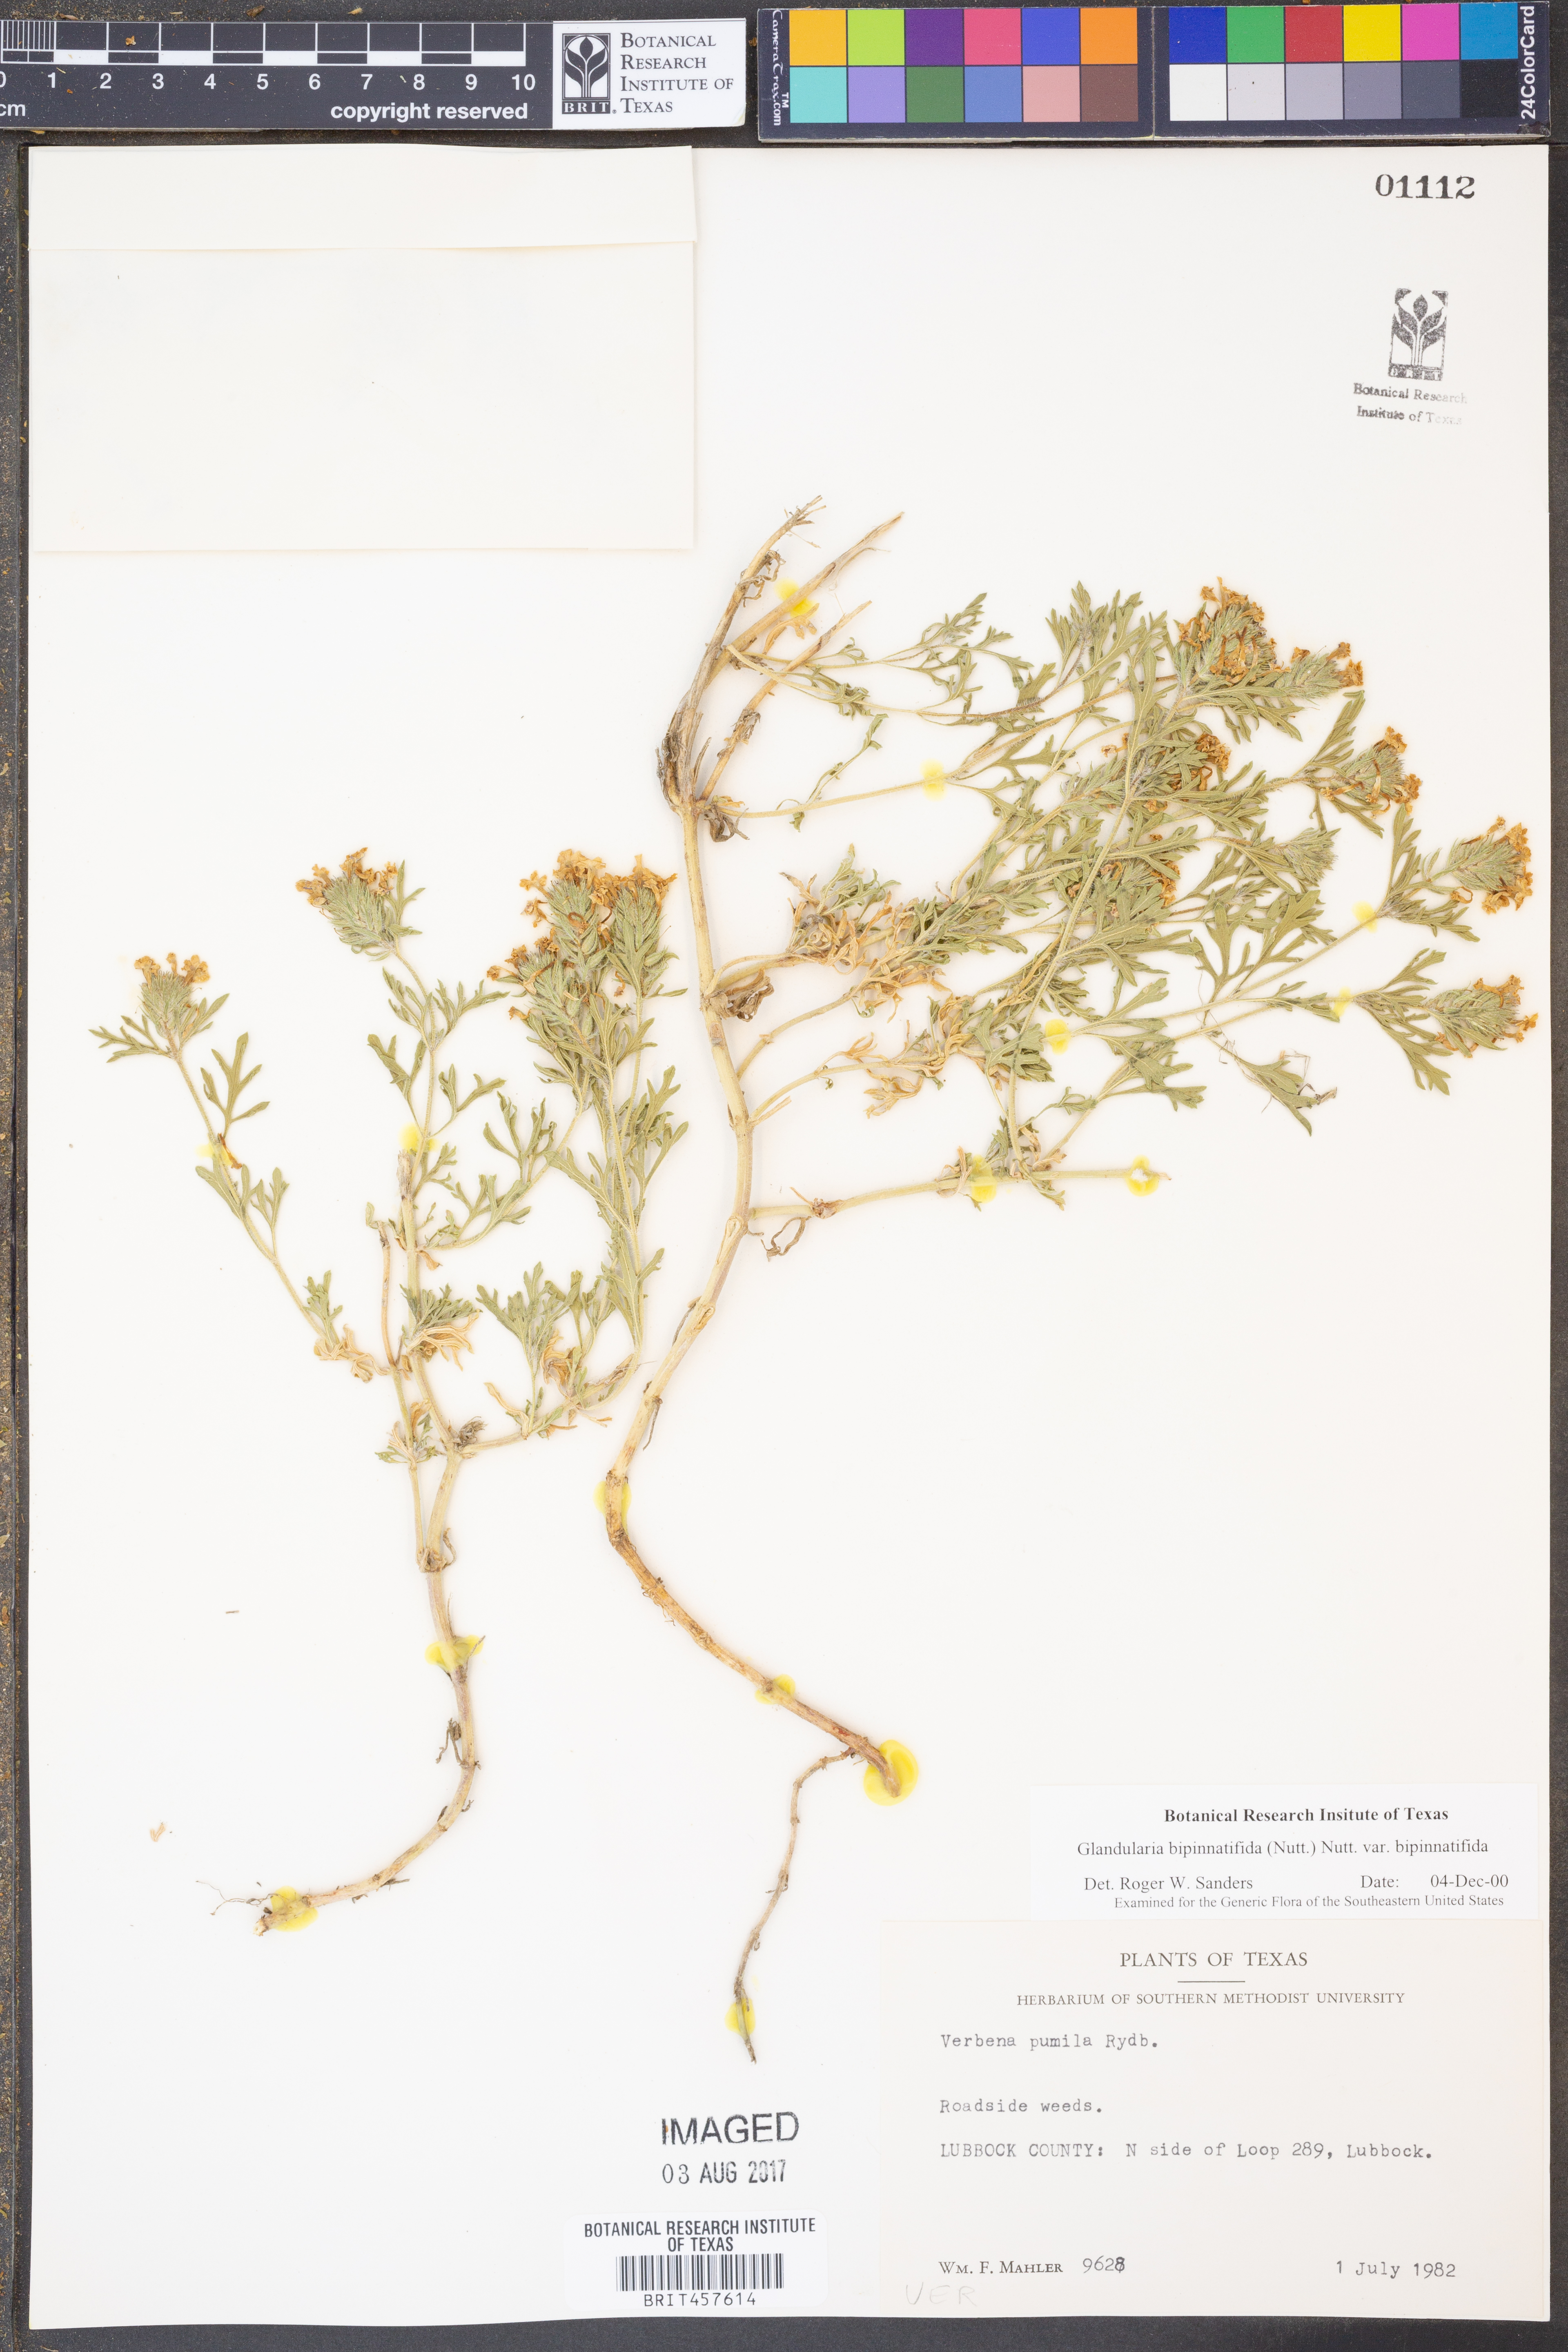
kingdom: Plantae
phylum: Tracheophyta
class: Magnoliopsida
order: Lamiales
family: Verbenaceae
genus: Verbena
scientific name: Verbena bipinnatifida
